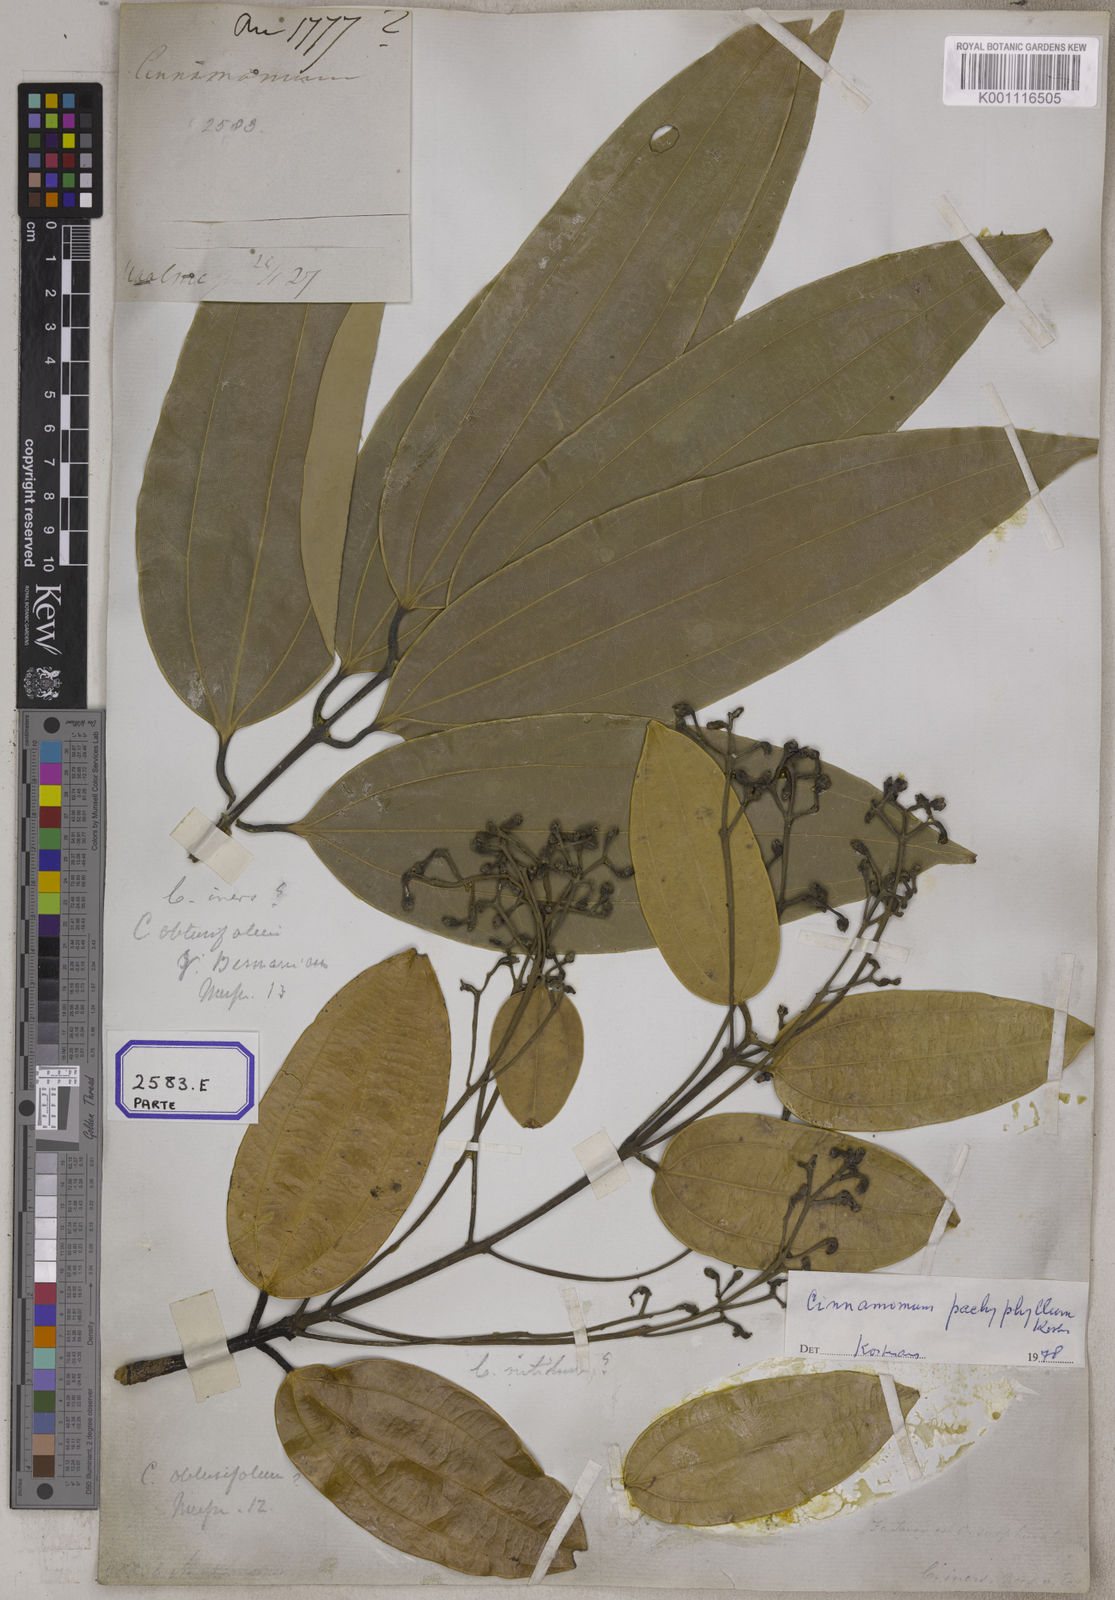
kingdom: Plantae
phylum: Tracheophyta
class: Magnoliopsida
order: Laurales
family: Lauraceae
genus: Cinnamomum
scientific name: Cinnamomum
